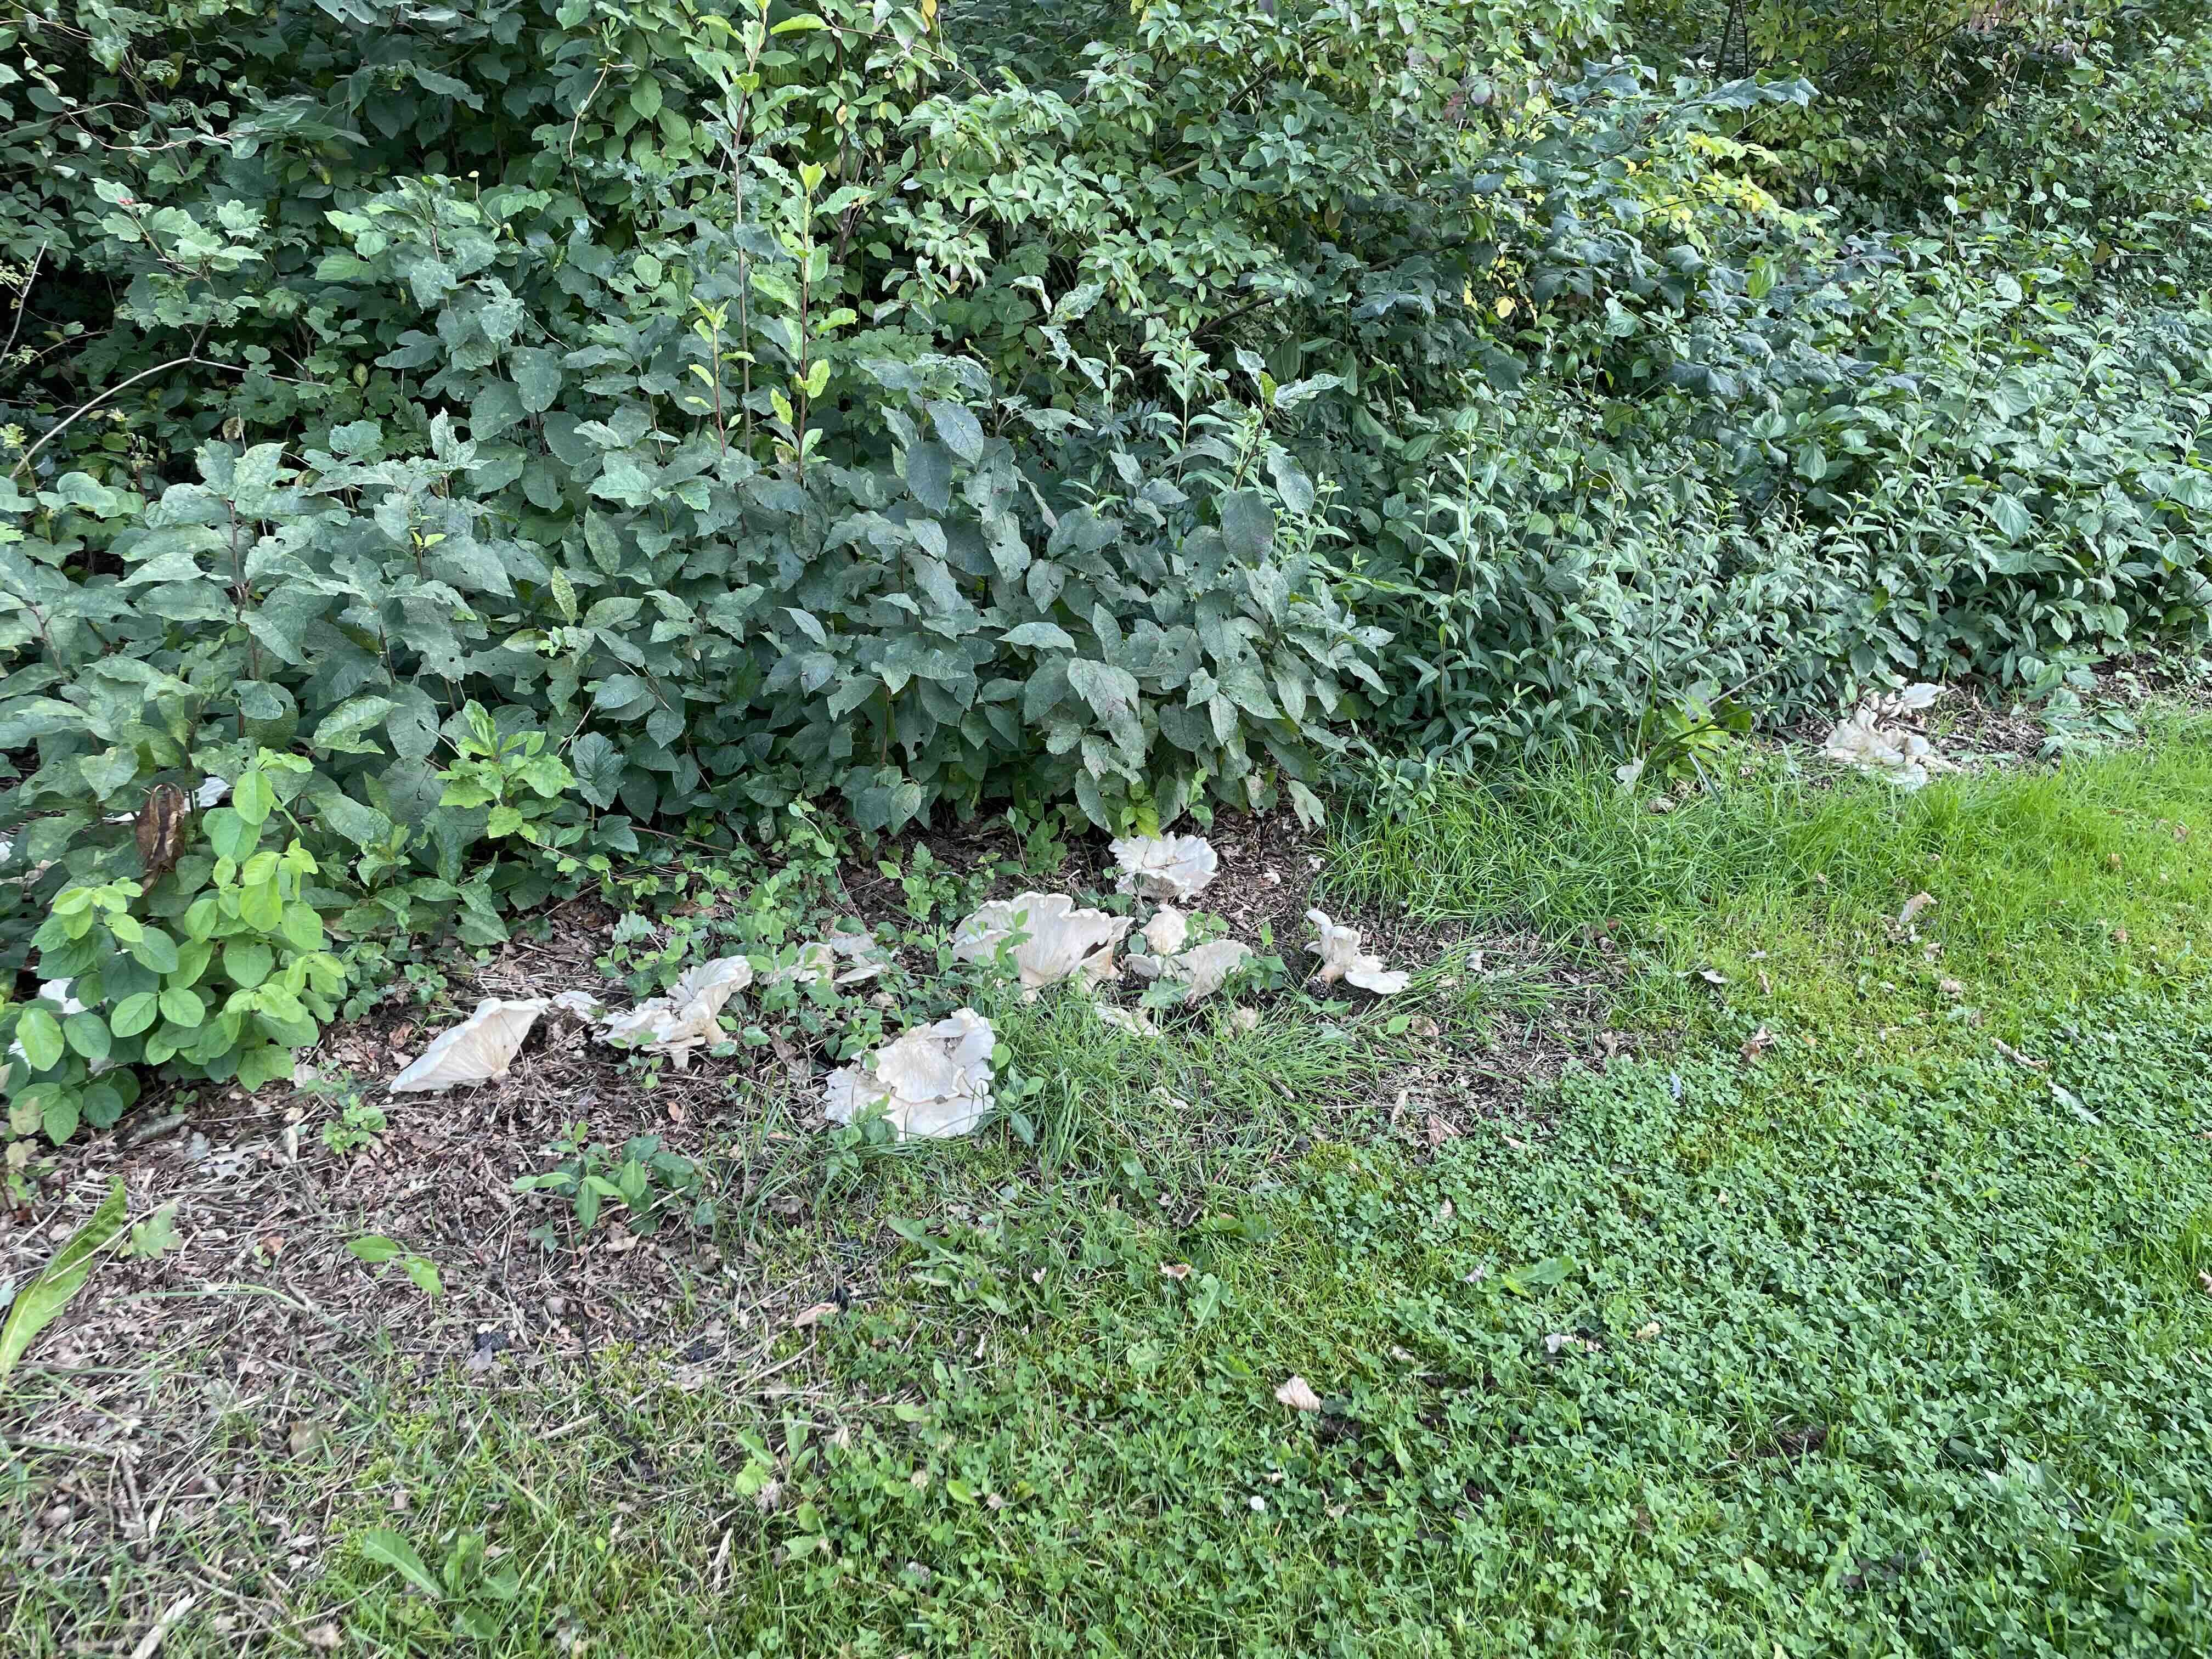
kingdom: Fungi
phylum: Basidiomycota
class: Agaricomycetes
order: Agaricales
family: Tricholomataceae
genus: Aspropaxillus
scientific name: Aspropaxillus giganteus
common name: kæmpe-tragtridderhat
